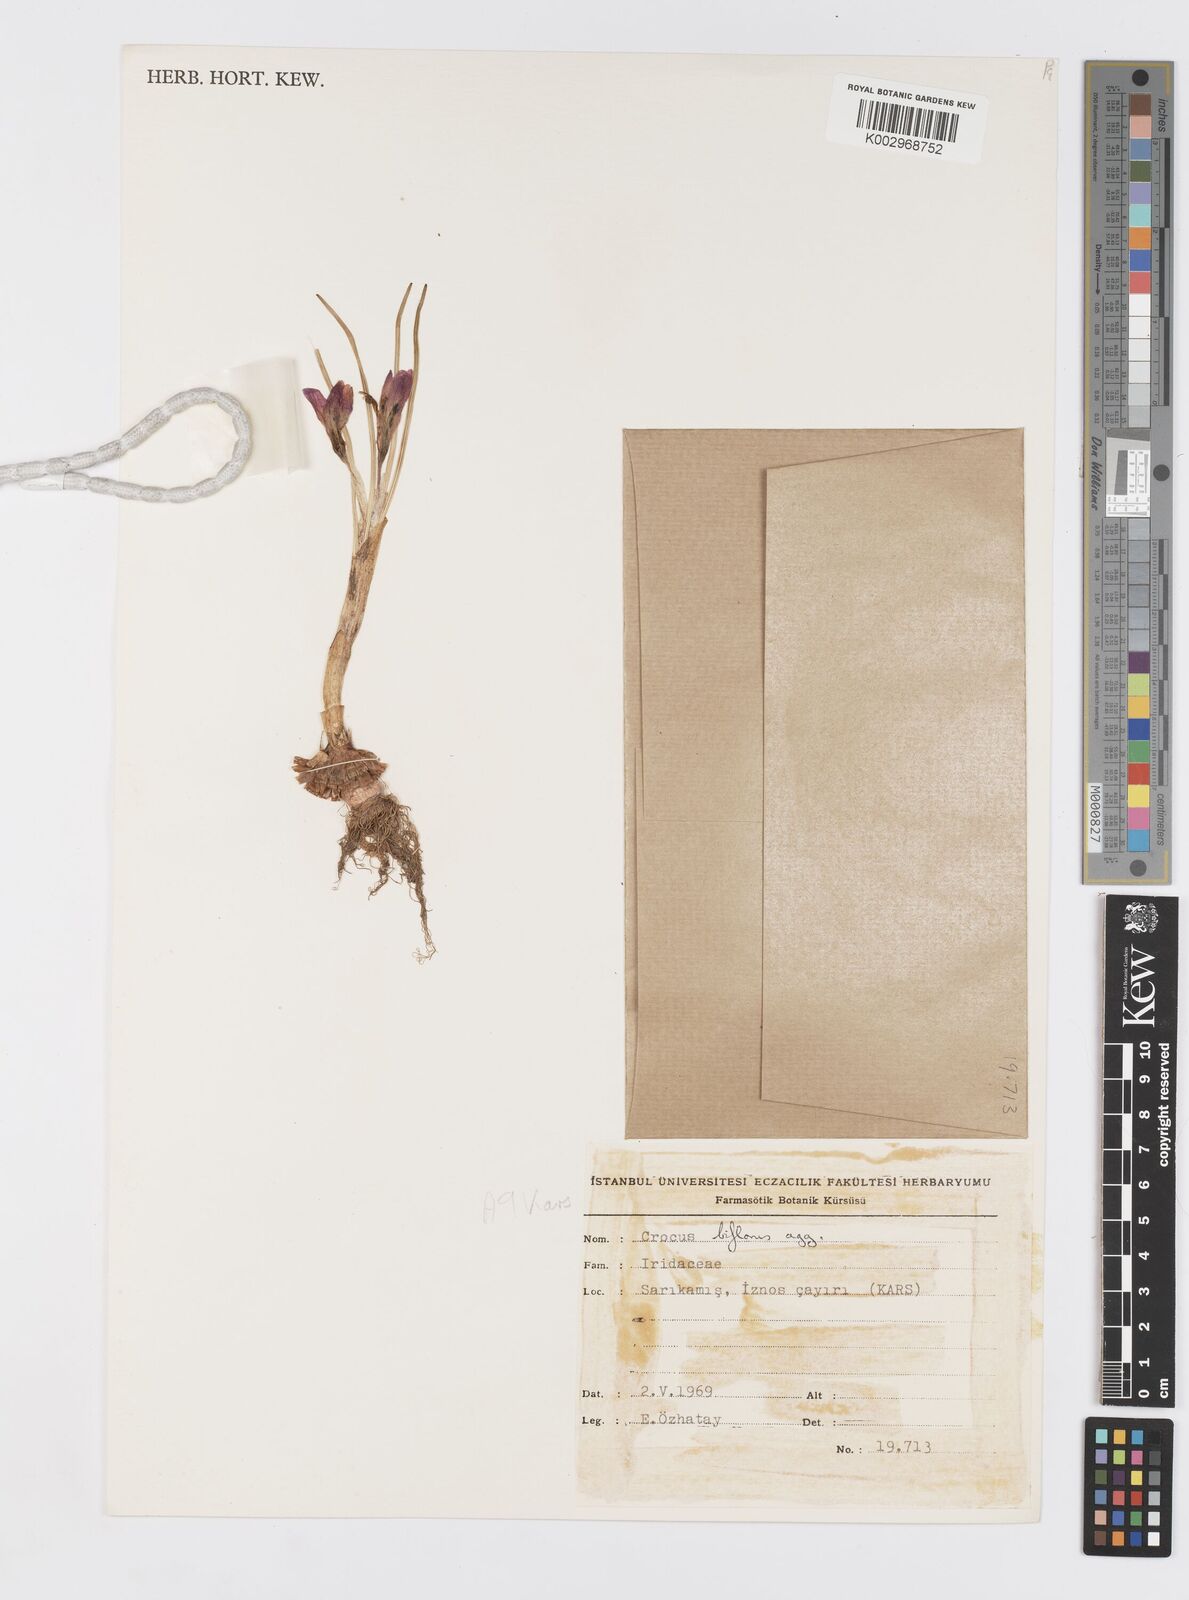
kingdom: Plantae
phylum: Tracheophyta
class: Liliopsida
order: Asparagales
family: Iridaceae
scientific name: Iridaceae
